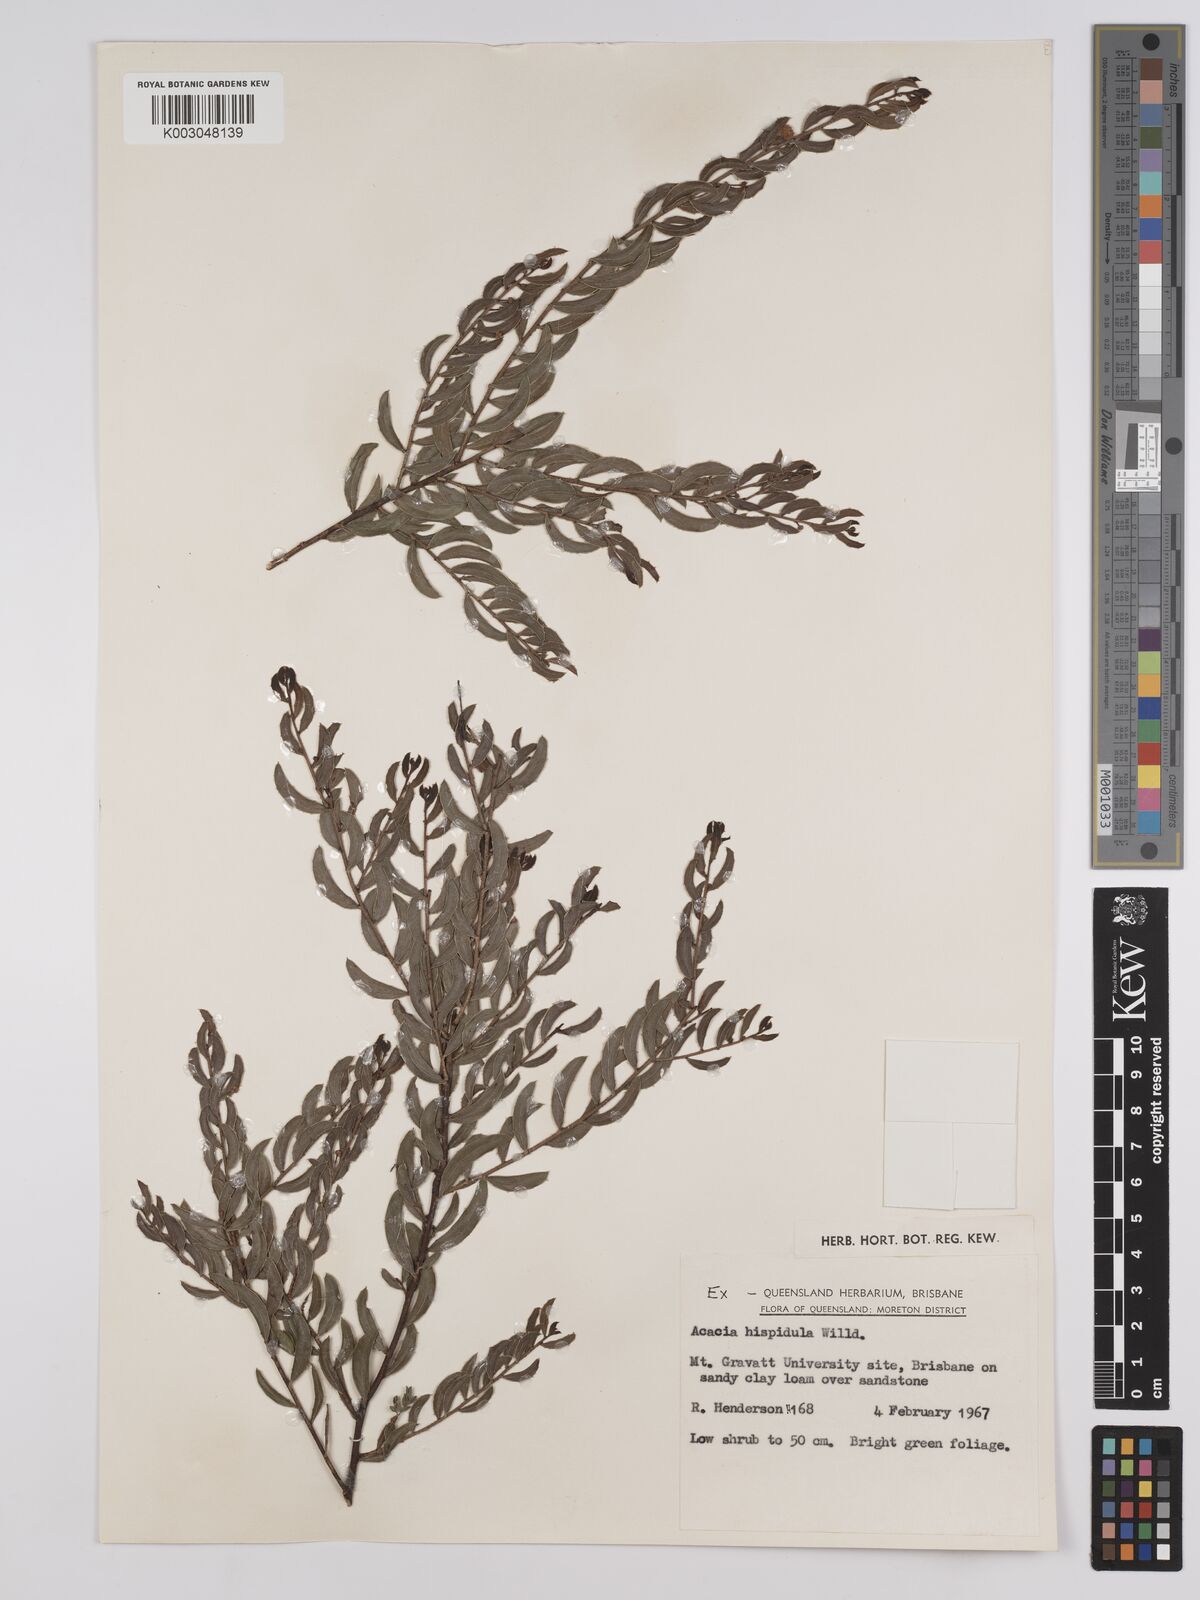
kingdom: Plantae
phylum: Tracheophyta
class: Magnoliopsida
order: Fabales
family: Fabaceae
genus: Acacia
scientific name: Acacia hispidula
